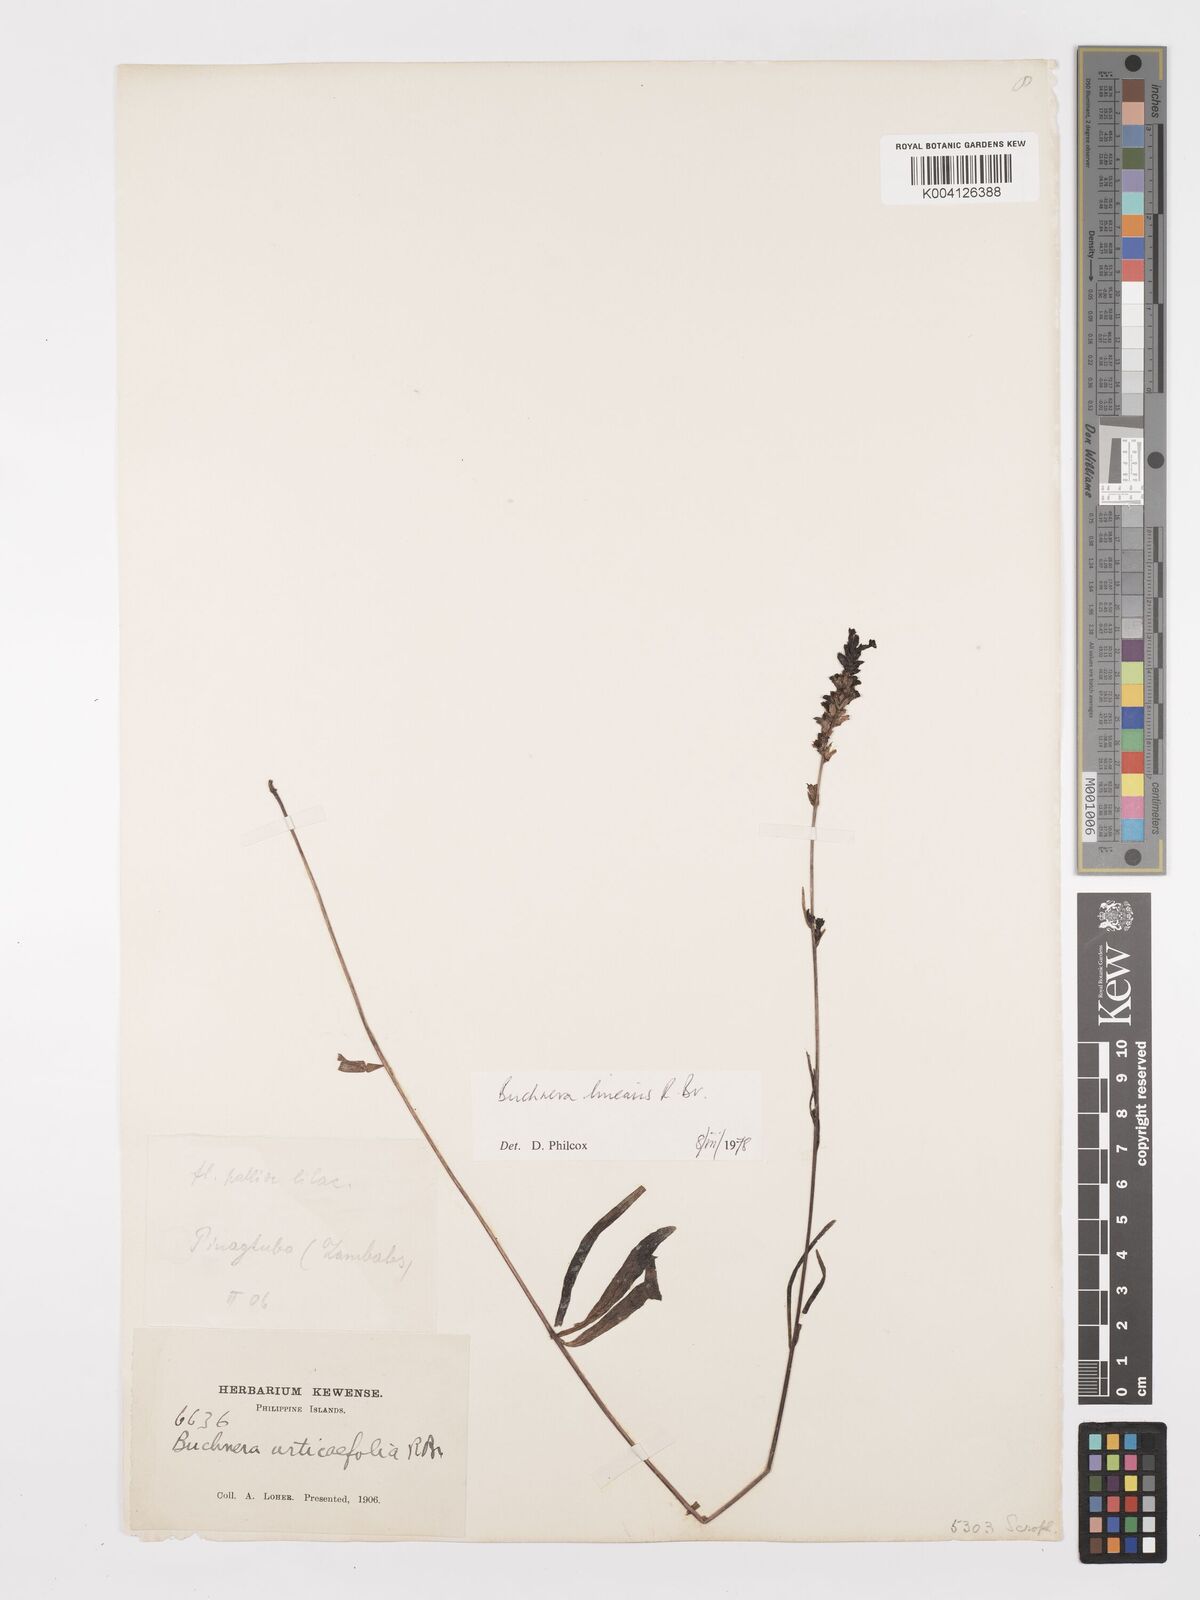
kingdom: Plantae
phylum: Tracheophyta
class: Magnoliopsida
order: Lamiales
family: Orobanchaceae
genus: Buchnera
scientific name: Buchnera linearis
